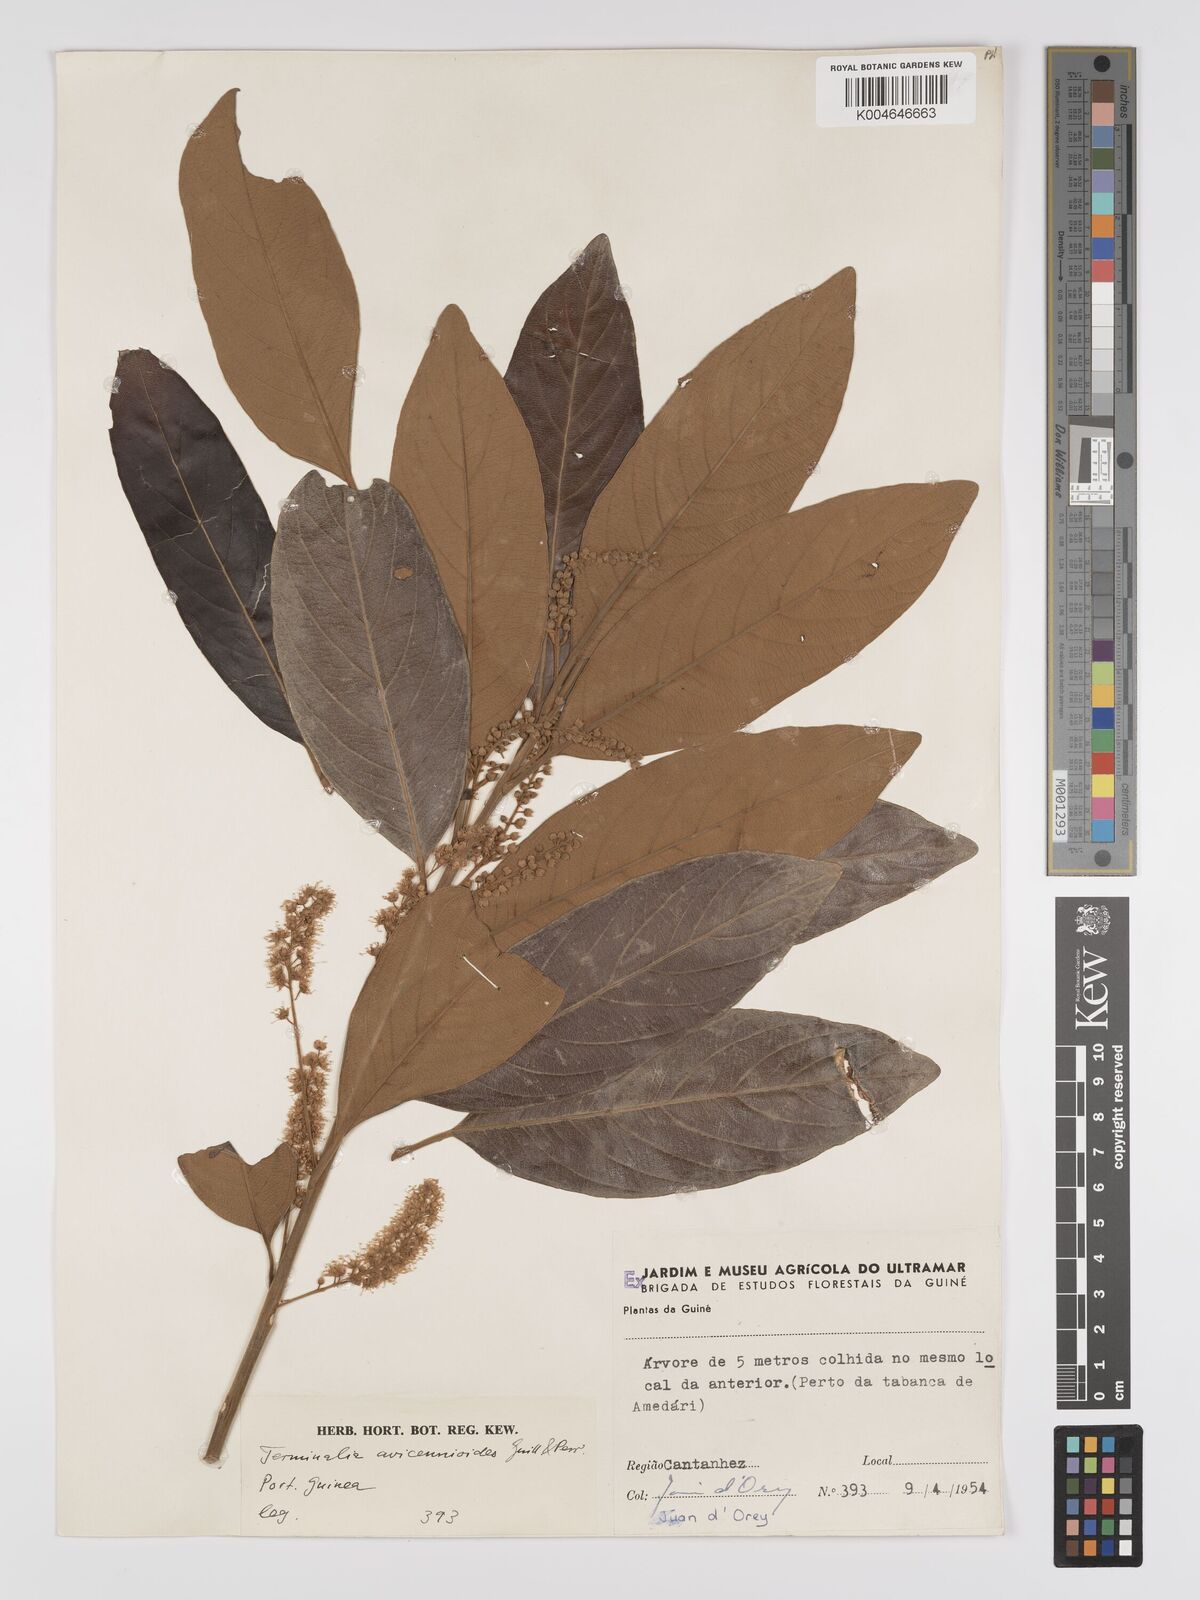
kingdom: Plantae
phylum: Tracheophyta
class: Magnoliopsida
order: Myrtales
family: Combretaceae
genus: Terminalia
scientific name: Terminalia avicennioides
